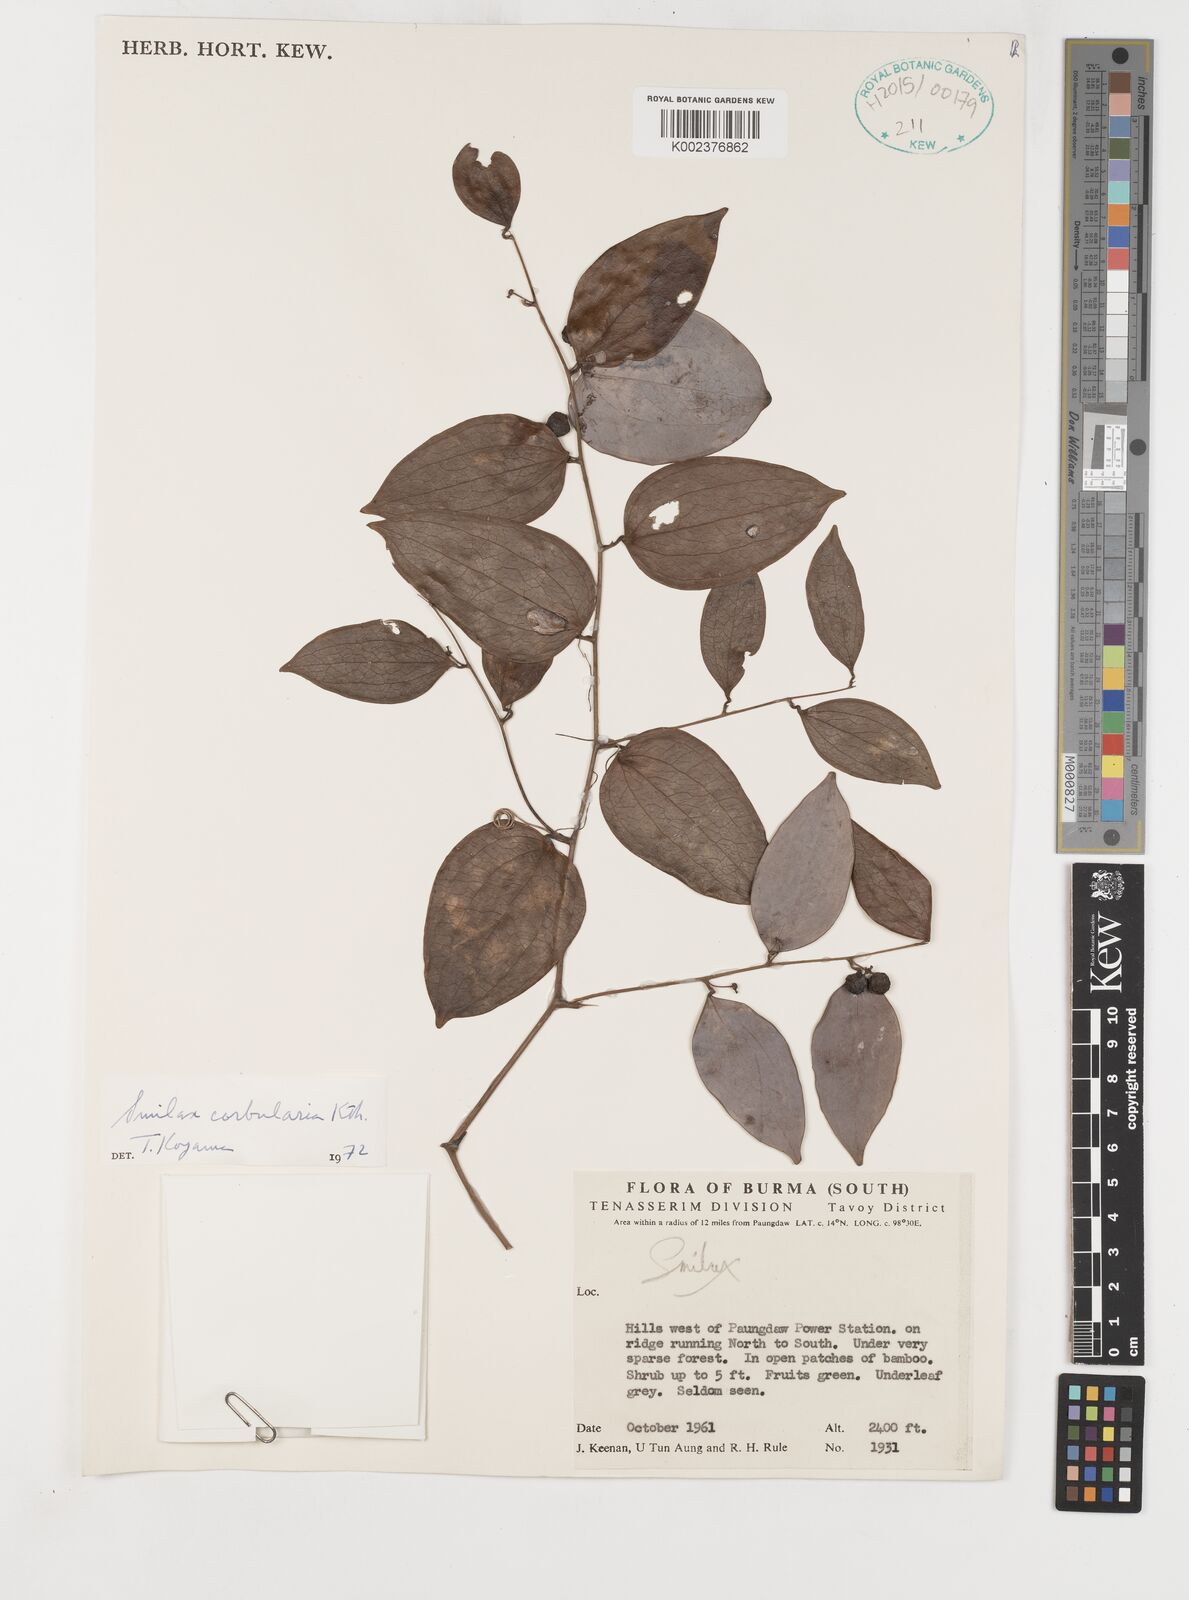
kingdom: Plantae
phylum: Tracheophyta
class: Liliopsida
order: Liliales
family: Smilacaceae
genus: Smilax
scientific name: Smilax corbularia
